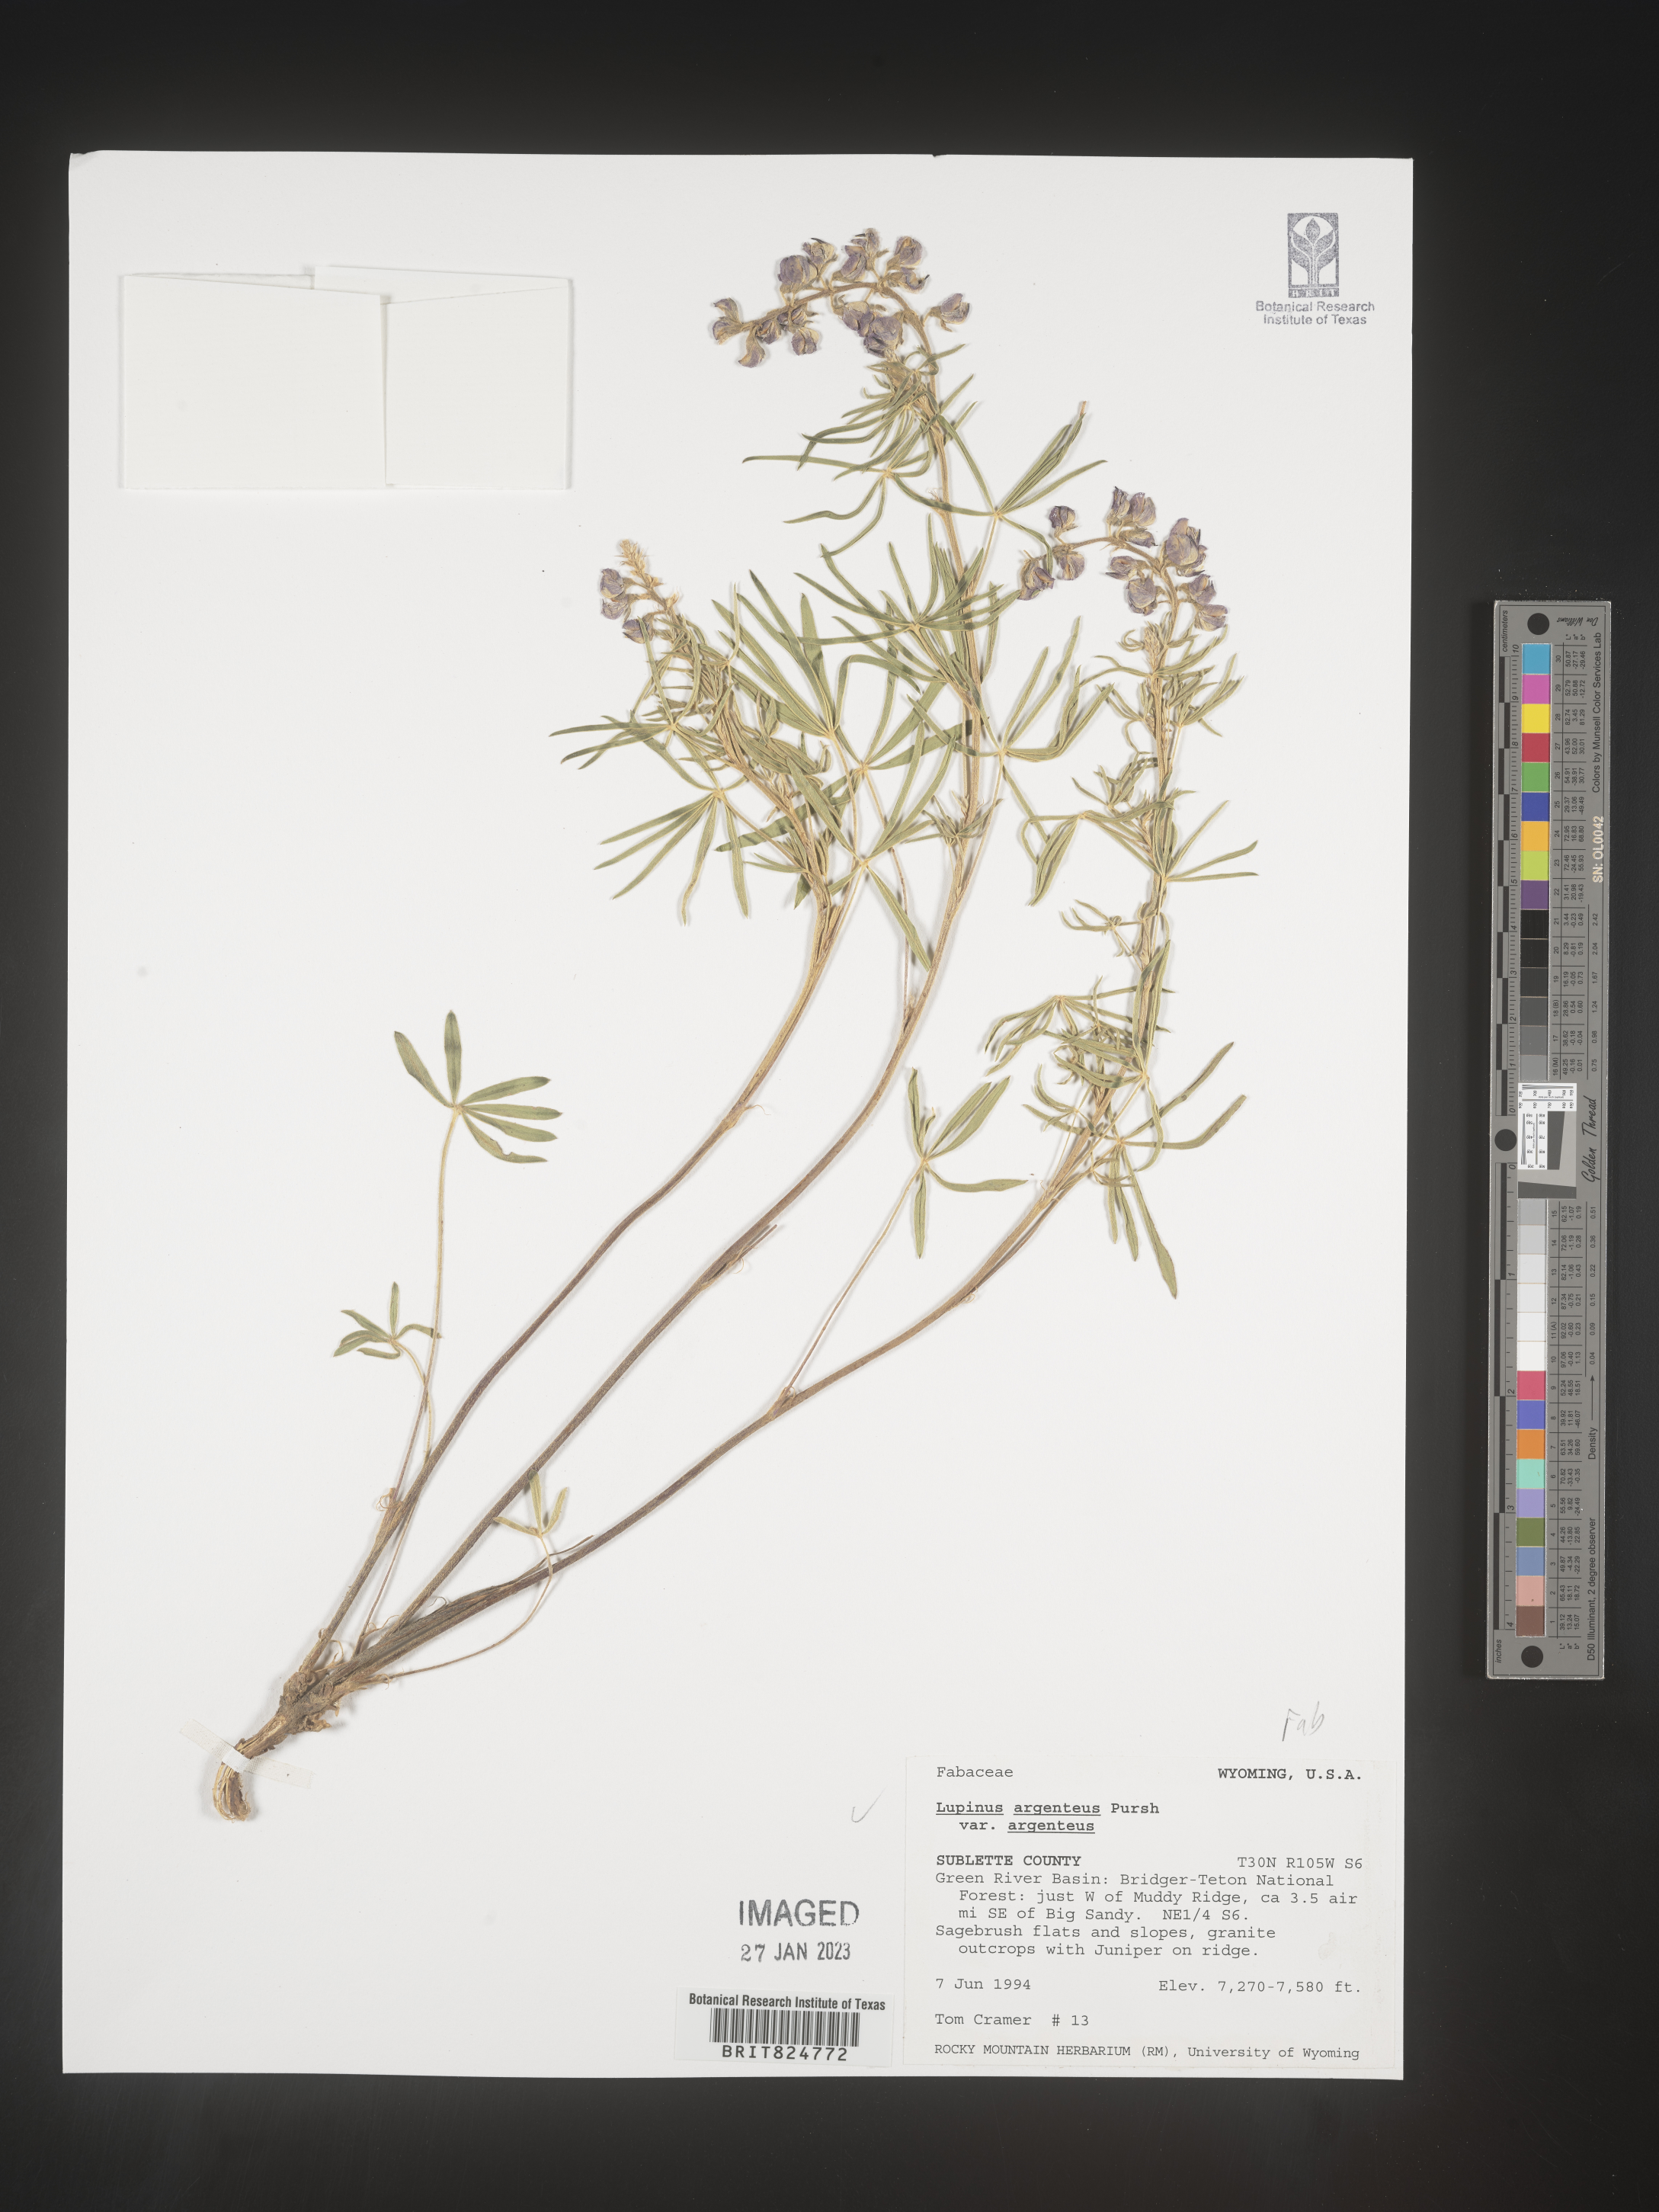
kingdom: Plantae
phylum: Tracheophyta
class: Magnoliopsida
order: Fabales
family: Fabaceae
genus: Lupinus
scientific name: Lupinus argenteus
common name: Silvery lupine
